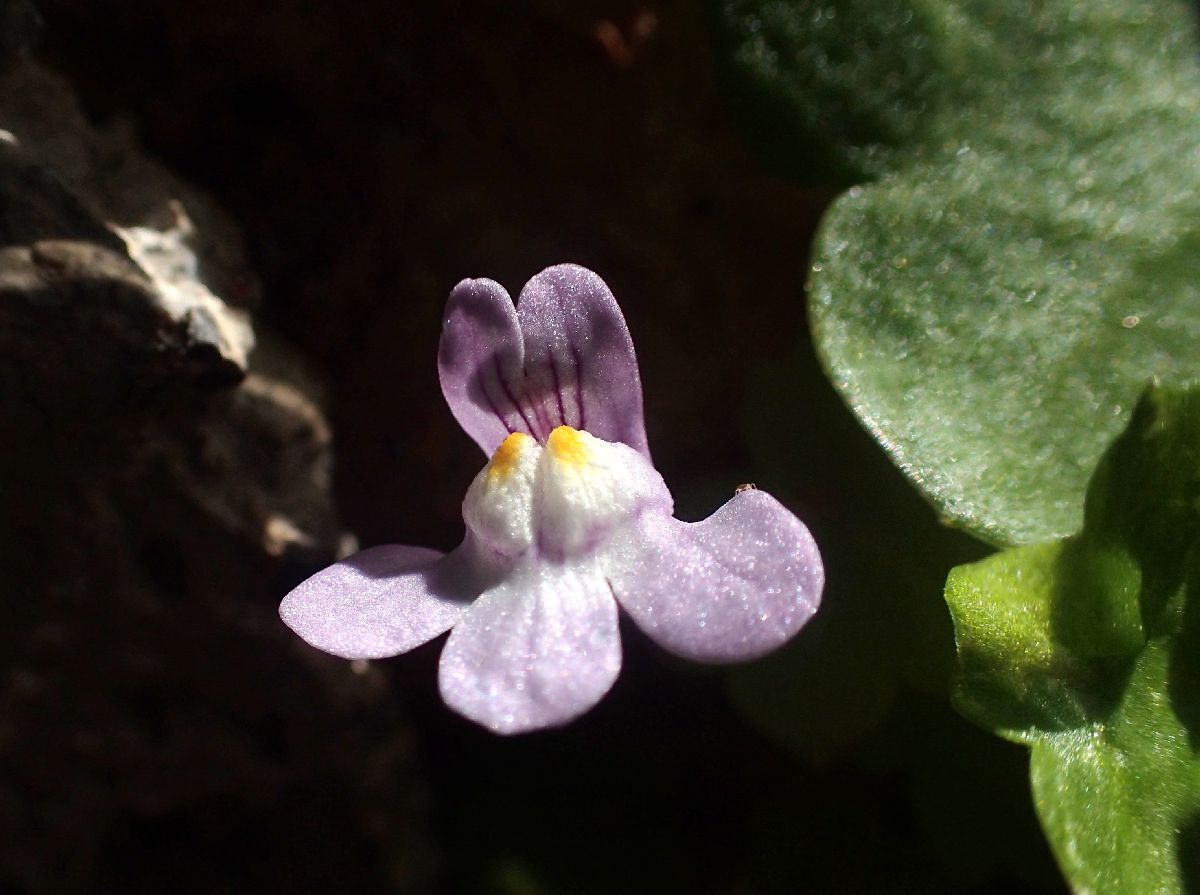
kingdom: Plantae
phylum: Tracheophyta
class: Magnoliopsida
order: Lamiales
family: Plantaginaceae
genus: Cymbalaria
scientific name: Cymbalaria muralis
